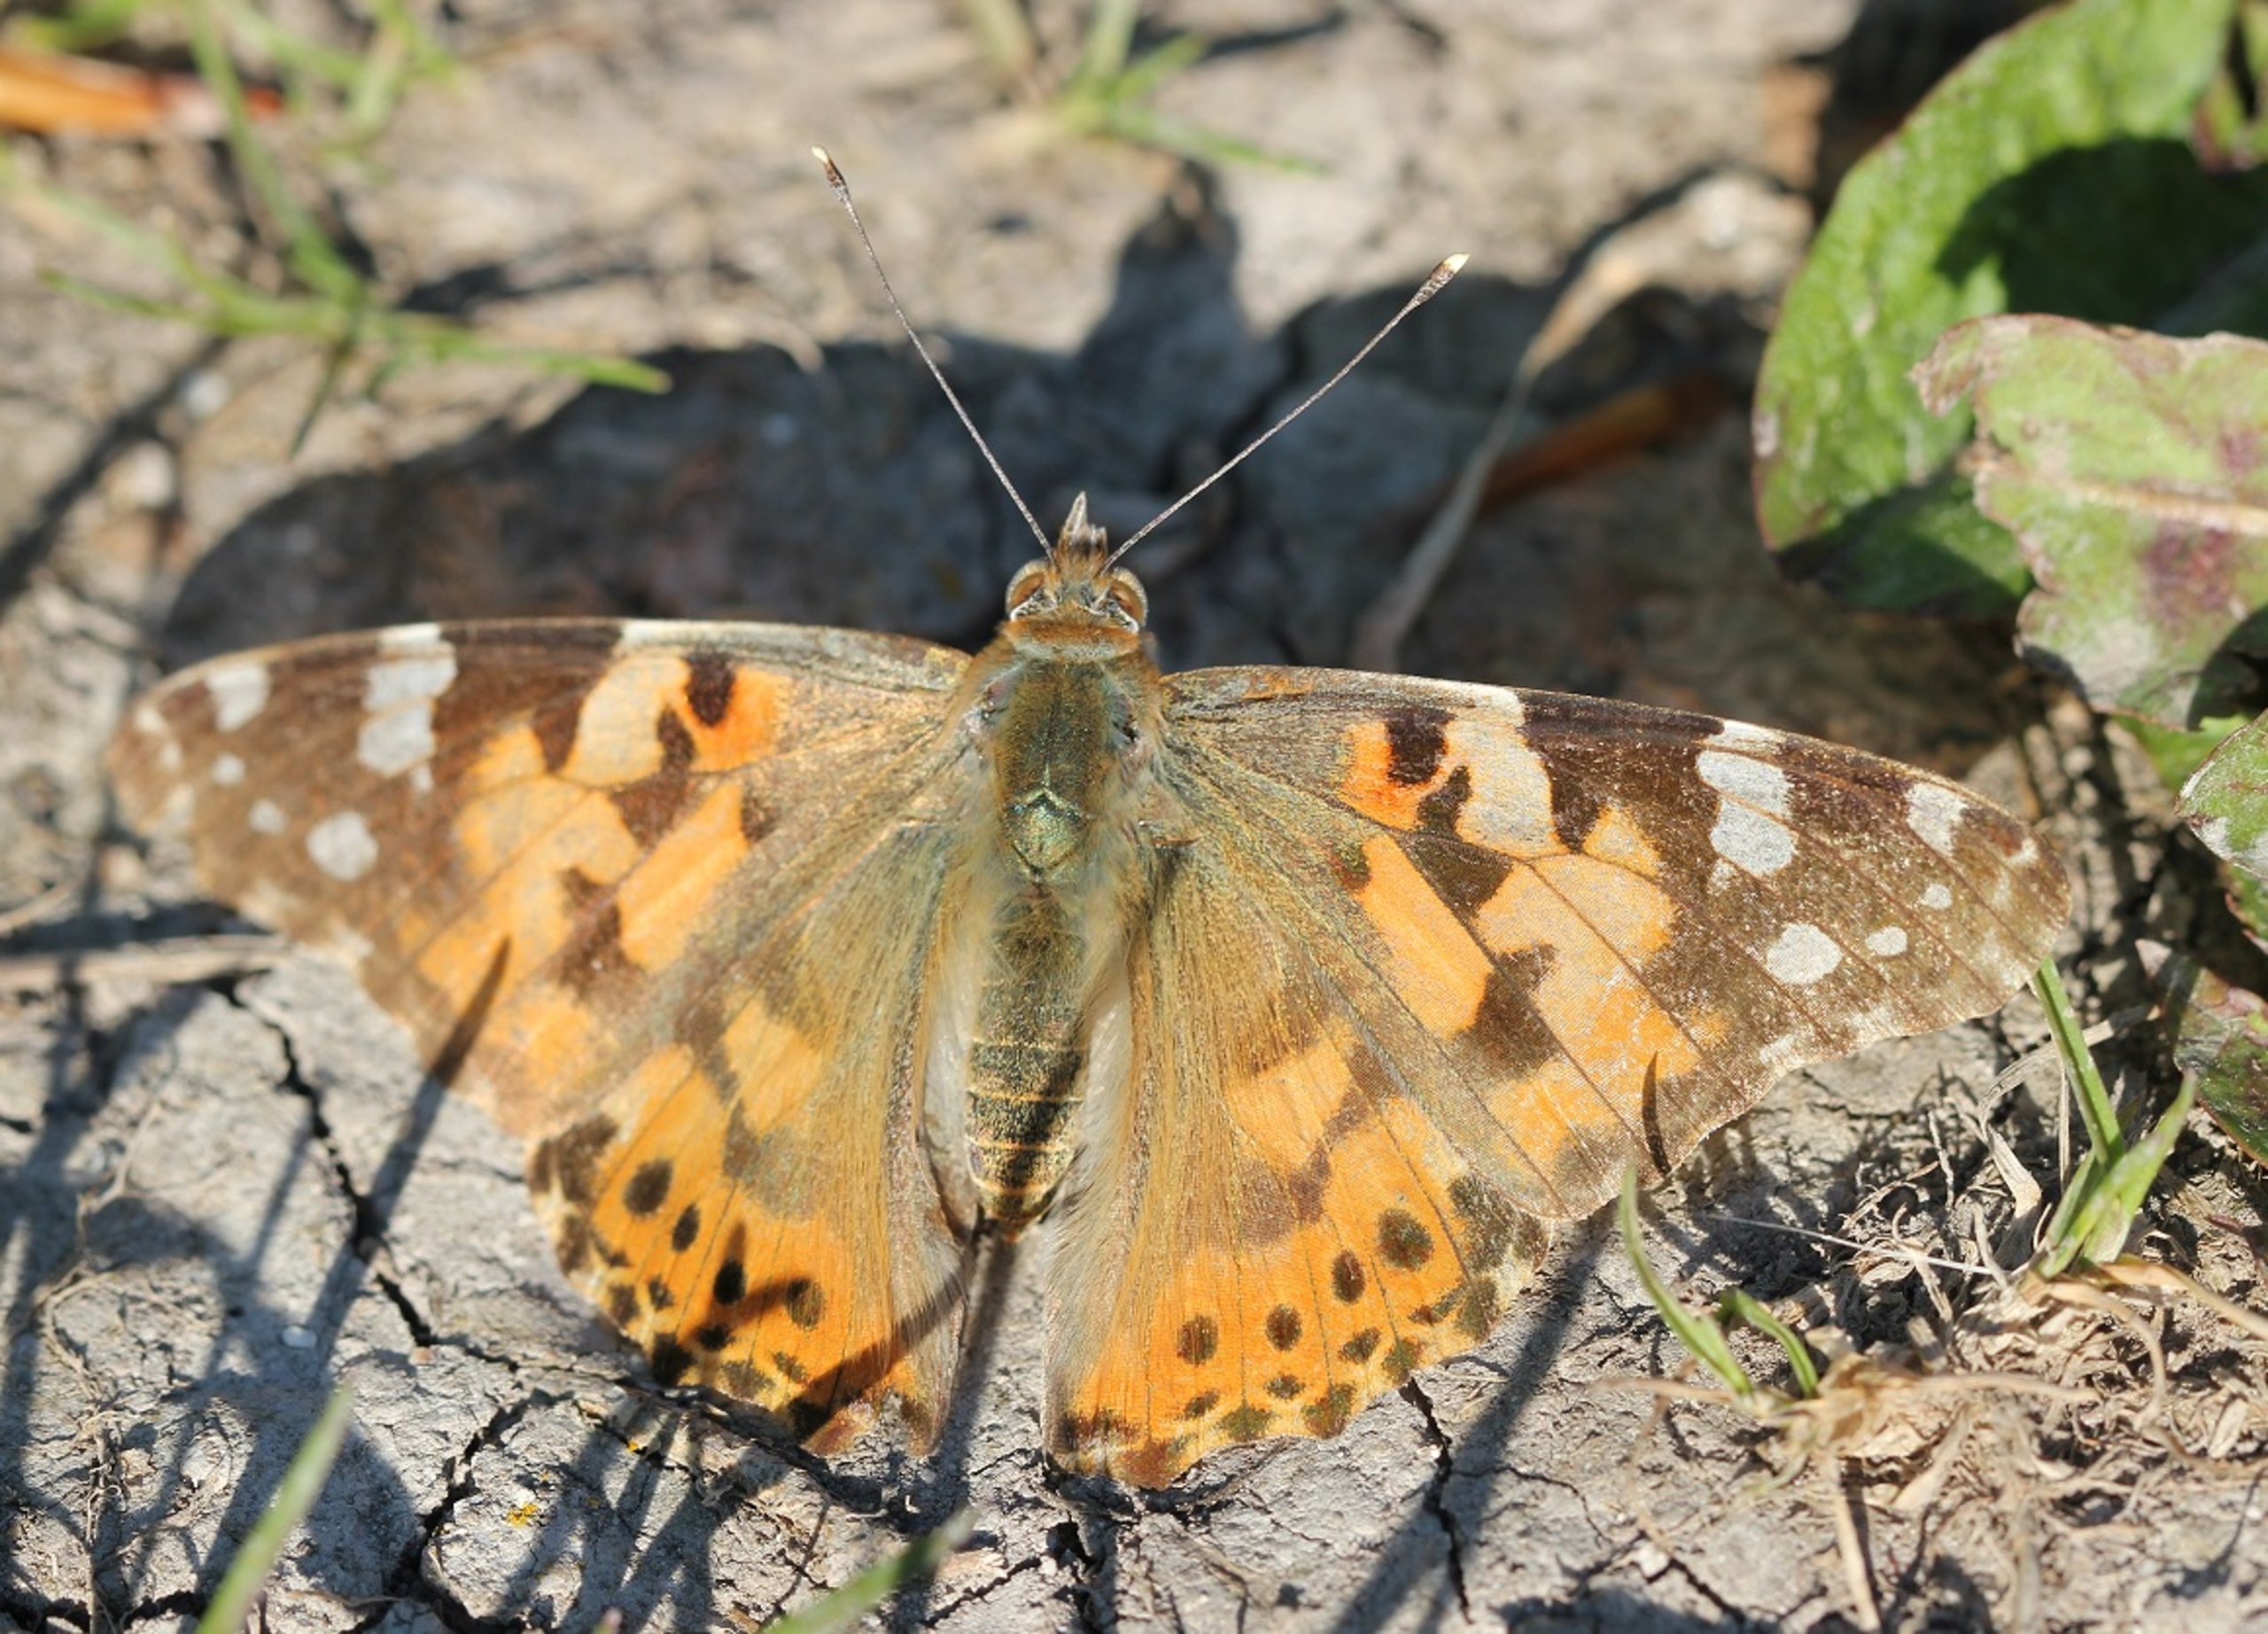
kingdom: Animalia
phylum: Arthropoda
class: Insecta
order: Lepidoptera
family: Nymphalidae
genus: Vanessa
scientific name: Vanessa cardui
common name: Tidselsommerfugl
